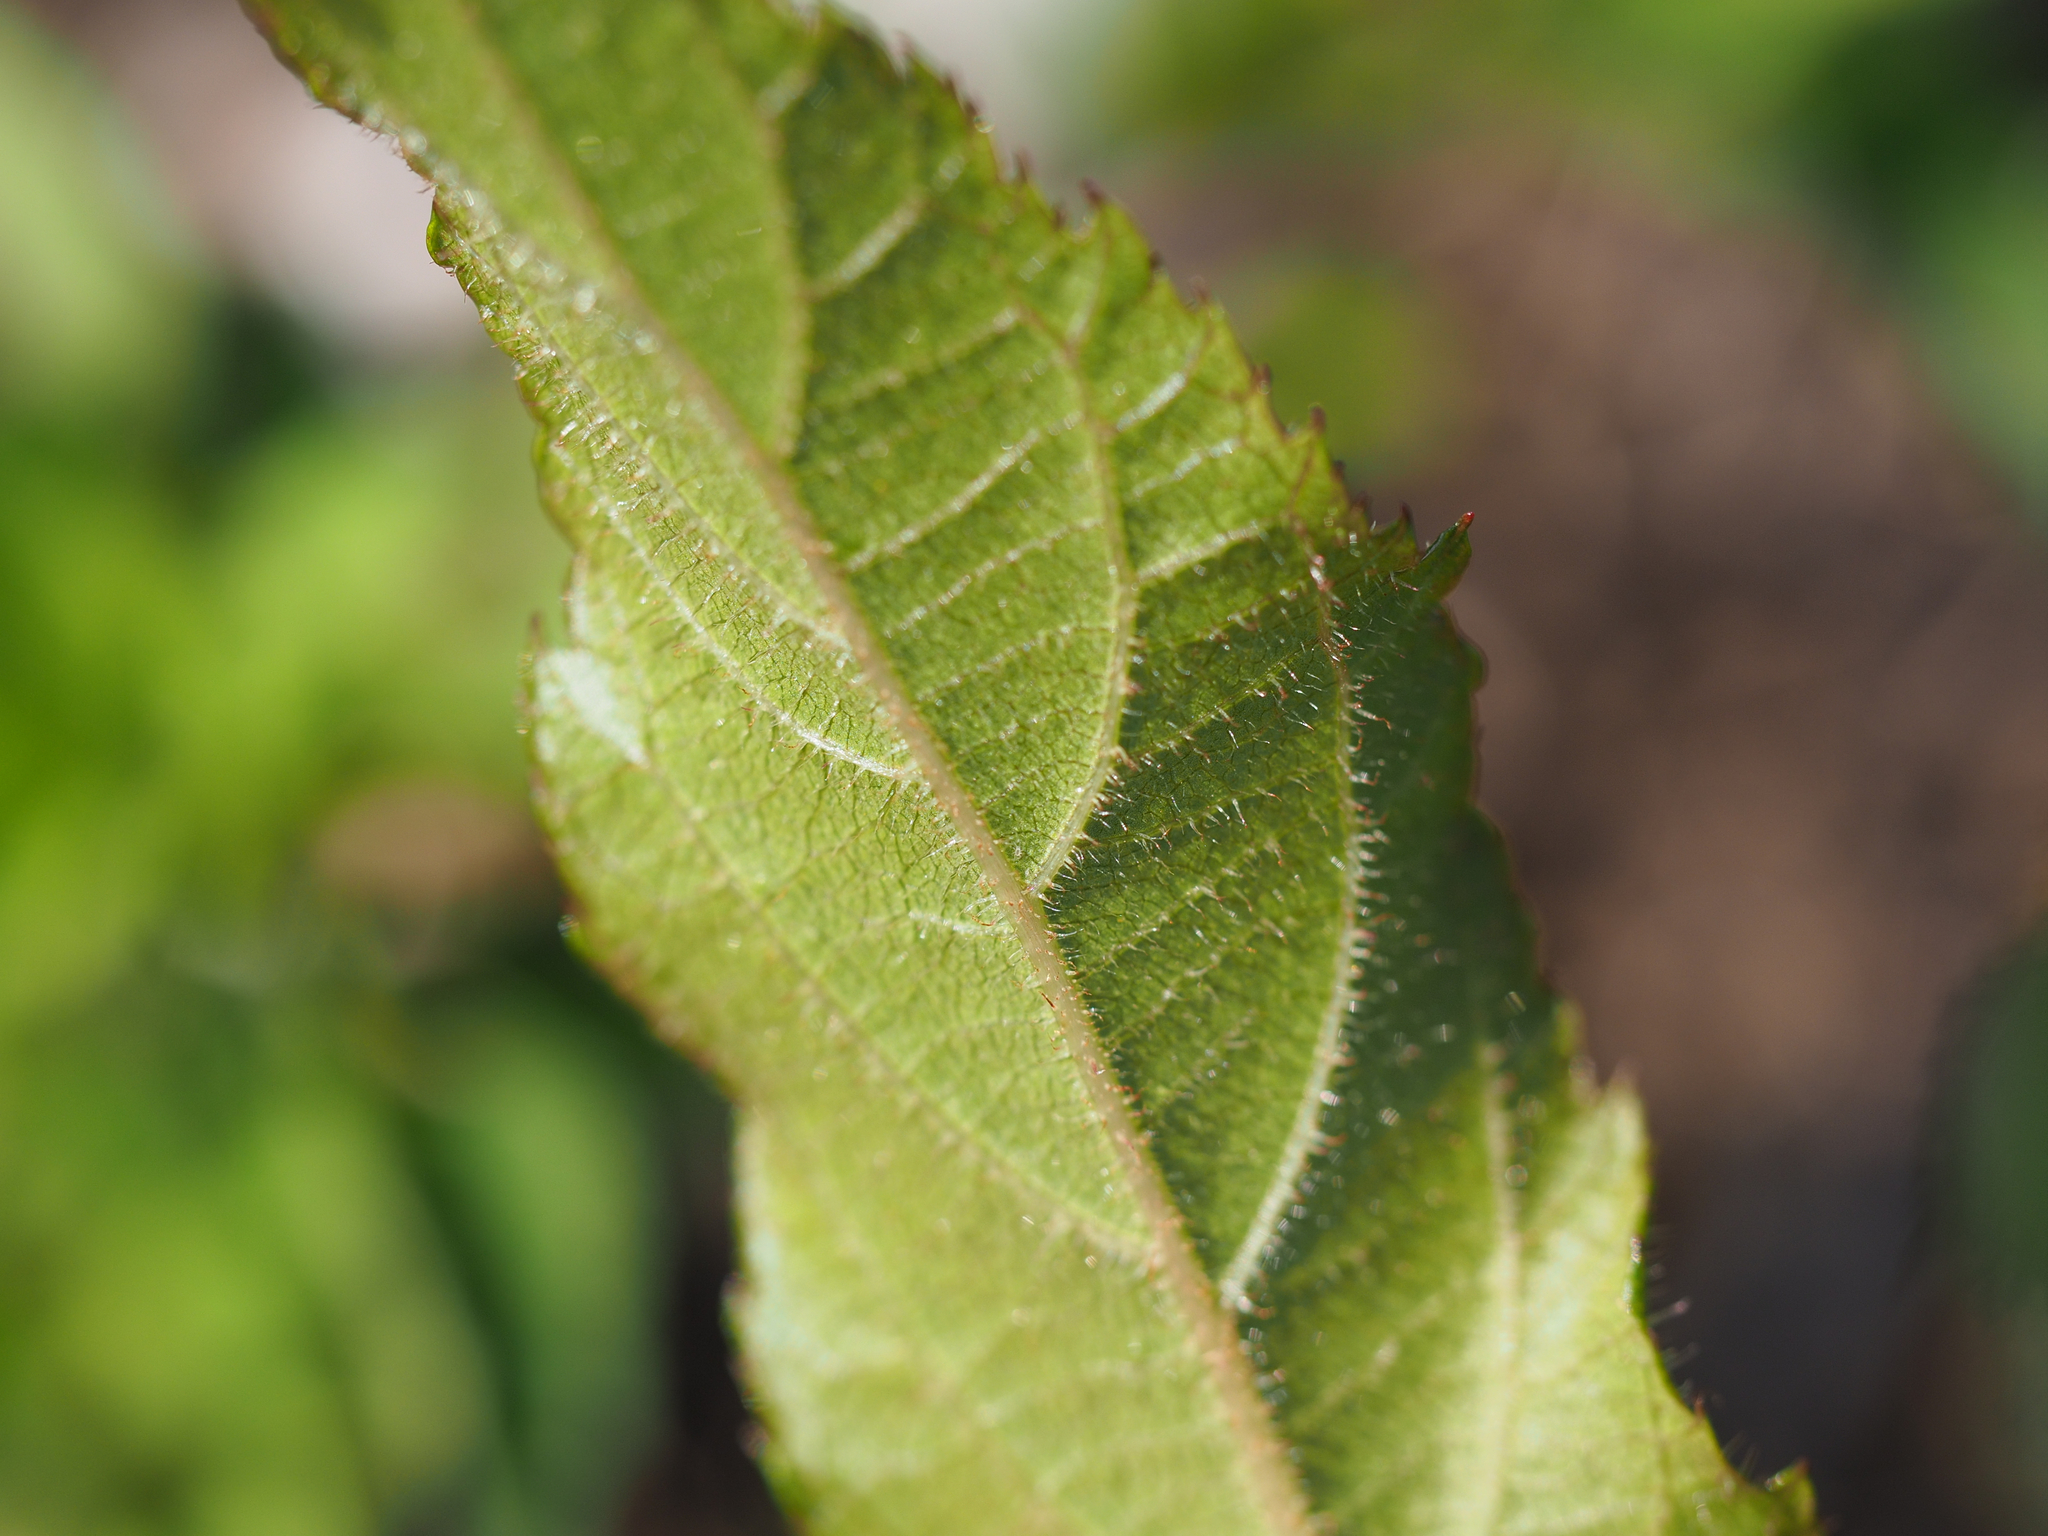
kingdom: Plantae
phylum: Tracheophyta
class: Magnoliopsida
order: Ericales
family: Actinidiaceae
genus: Actinidia
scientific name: Actinidia rufa
